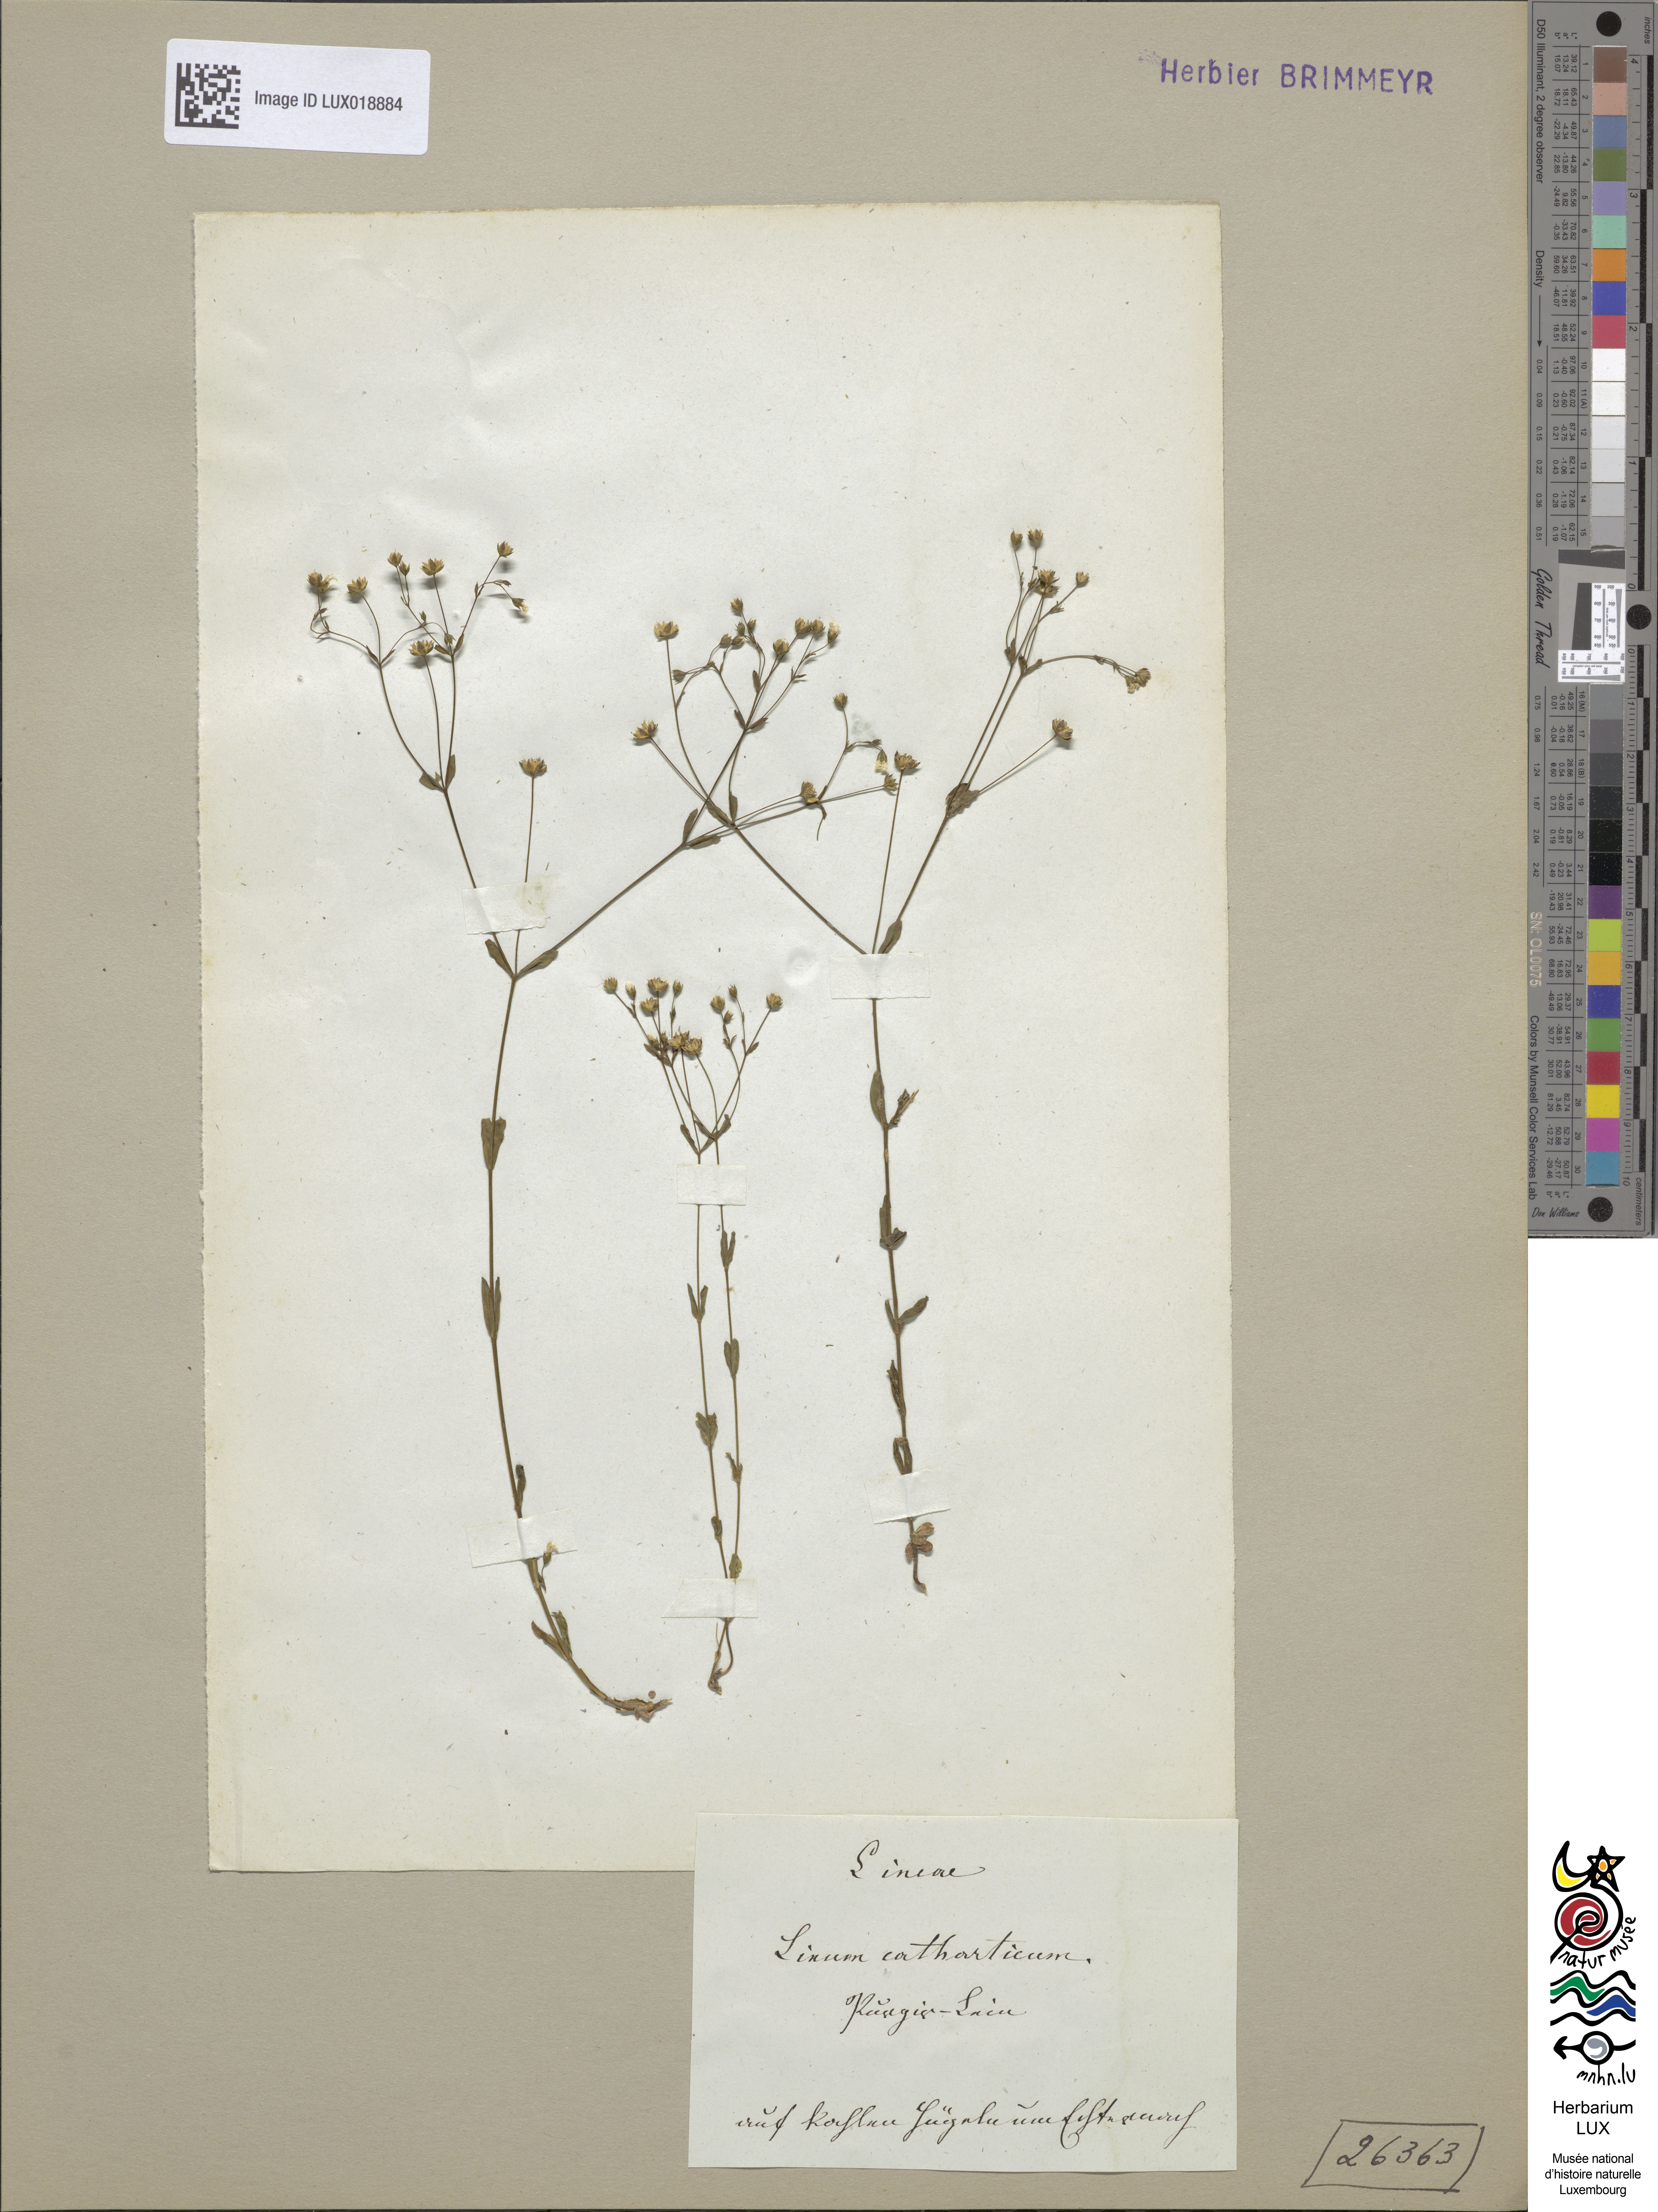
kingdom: Plantae
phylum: Tracheophyta
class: Magnoliopsida
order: Malpighiales
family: Linaceae
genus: Linum
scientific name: Linum catharticum
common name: Fairy flax
